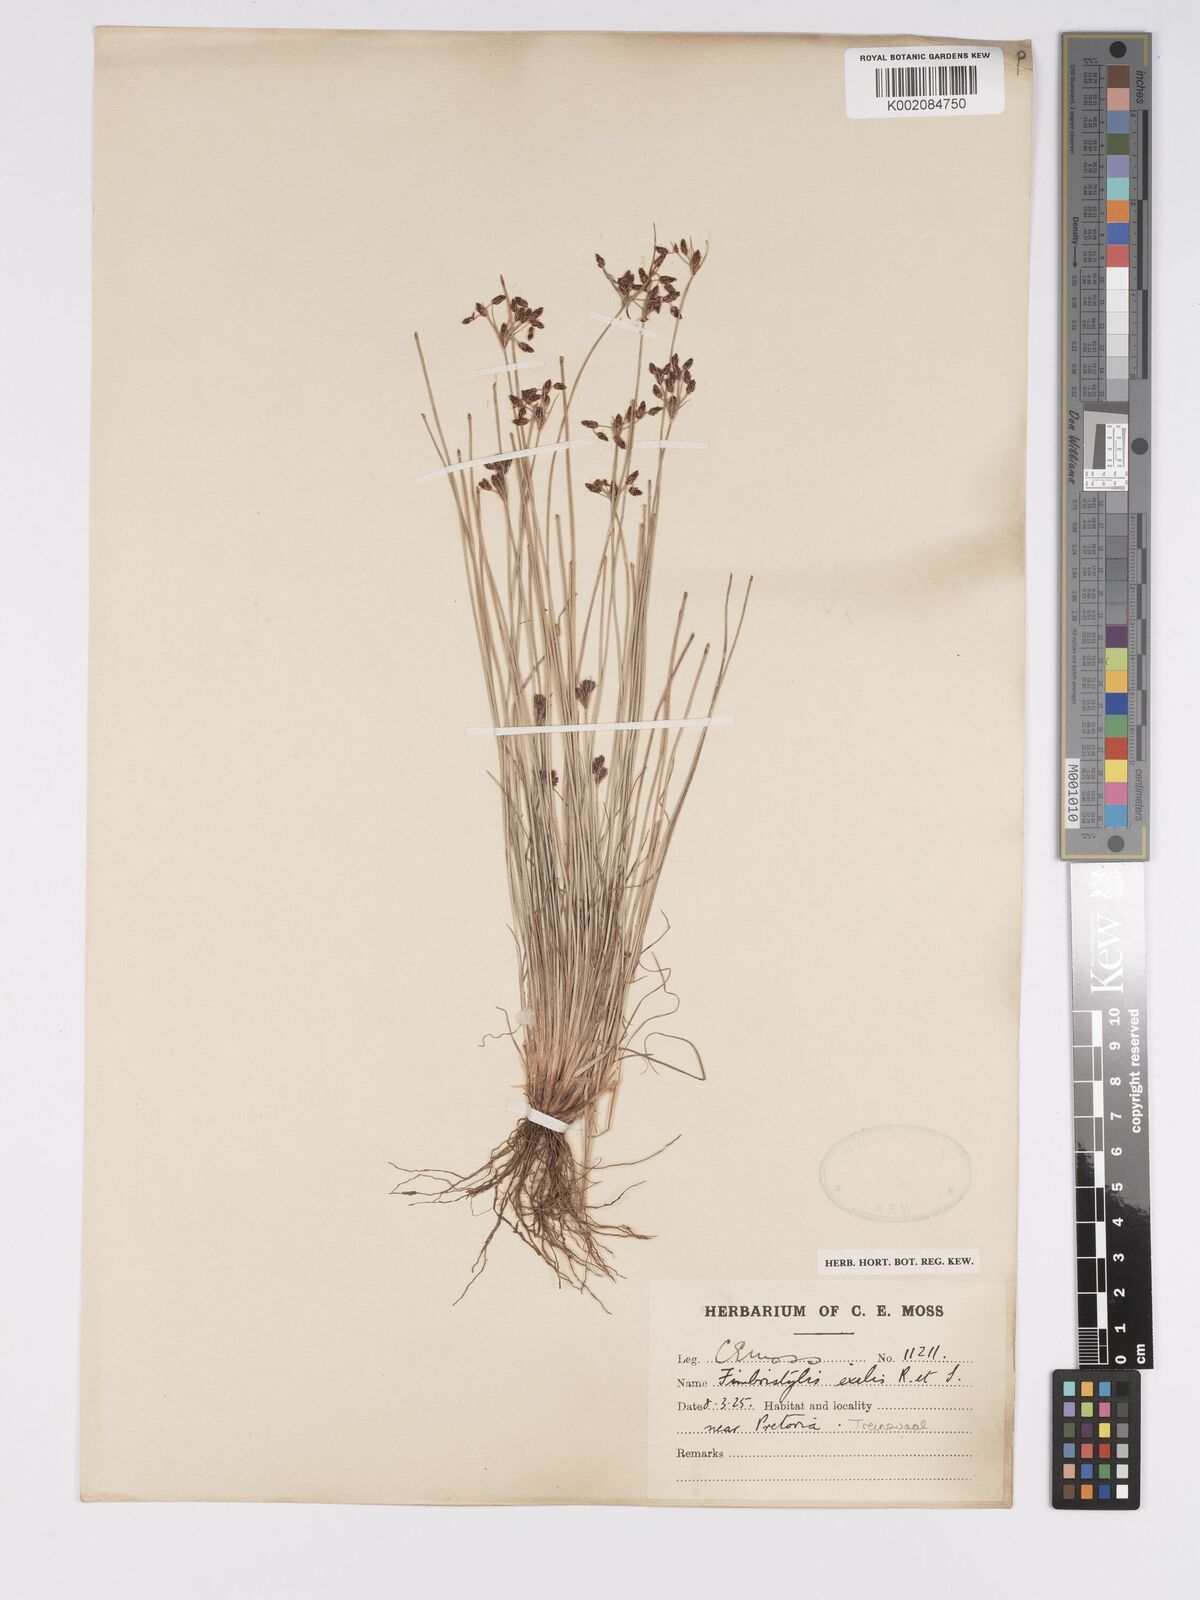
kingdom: Plantae
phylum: Tracheophyta
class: Liliopsida
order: Poales
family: Cyperaceae
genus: Bulbostylis
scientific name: Bulbostylis
